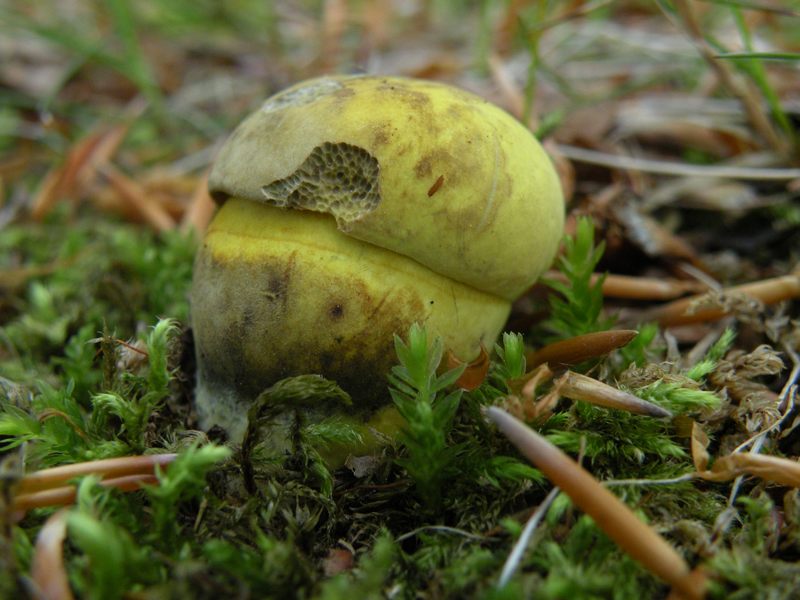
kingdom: Fungi
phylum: Basidiomycota
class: Agaricomycetes
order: Boletales
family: Boletaceae
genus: Neoboletus
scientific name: Neoboletus praestigiator
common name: gul indigorørhat
